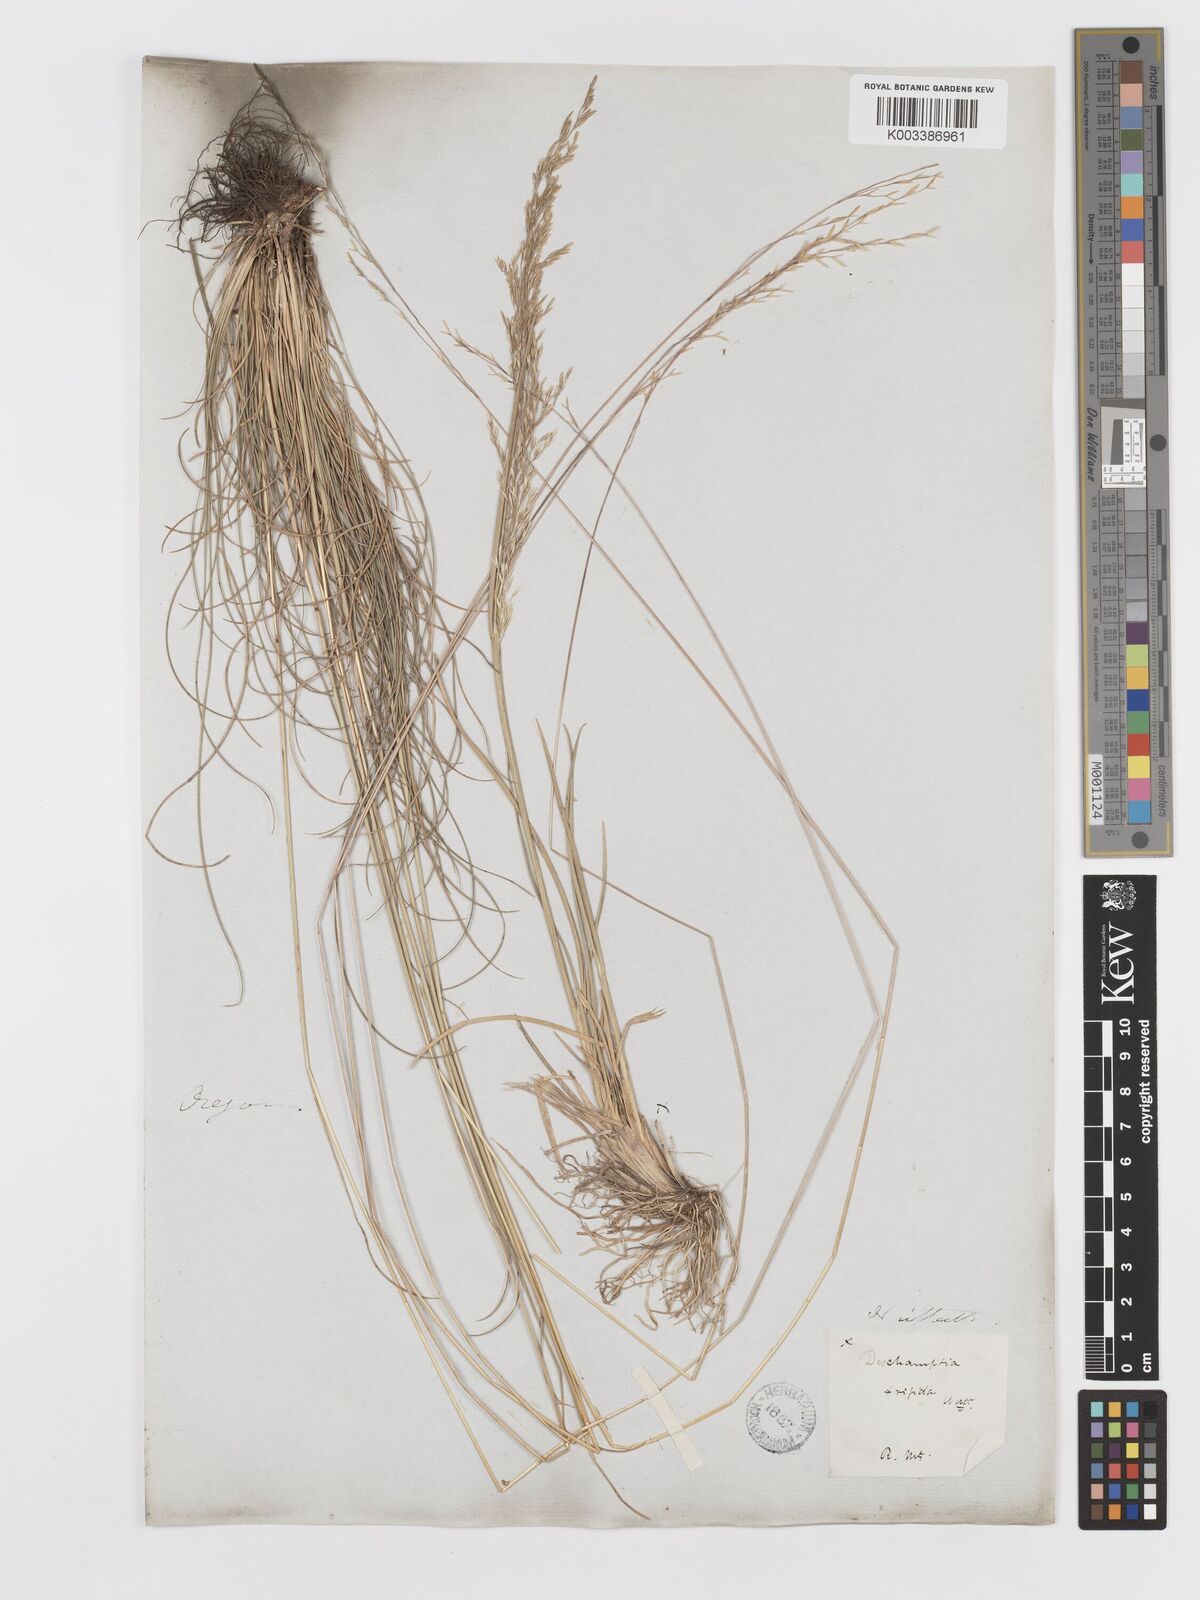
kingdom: Plantae
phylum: Tracheophyta
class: Liliopsida
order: Poales
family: Poaceae
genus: Deschampsia
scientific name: Deschampsia elongata
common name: Slender hairgrass
